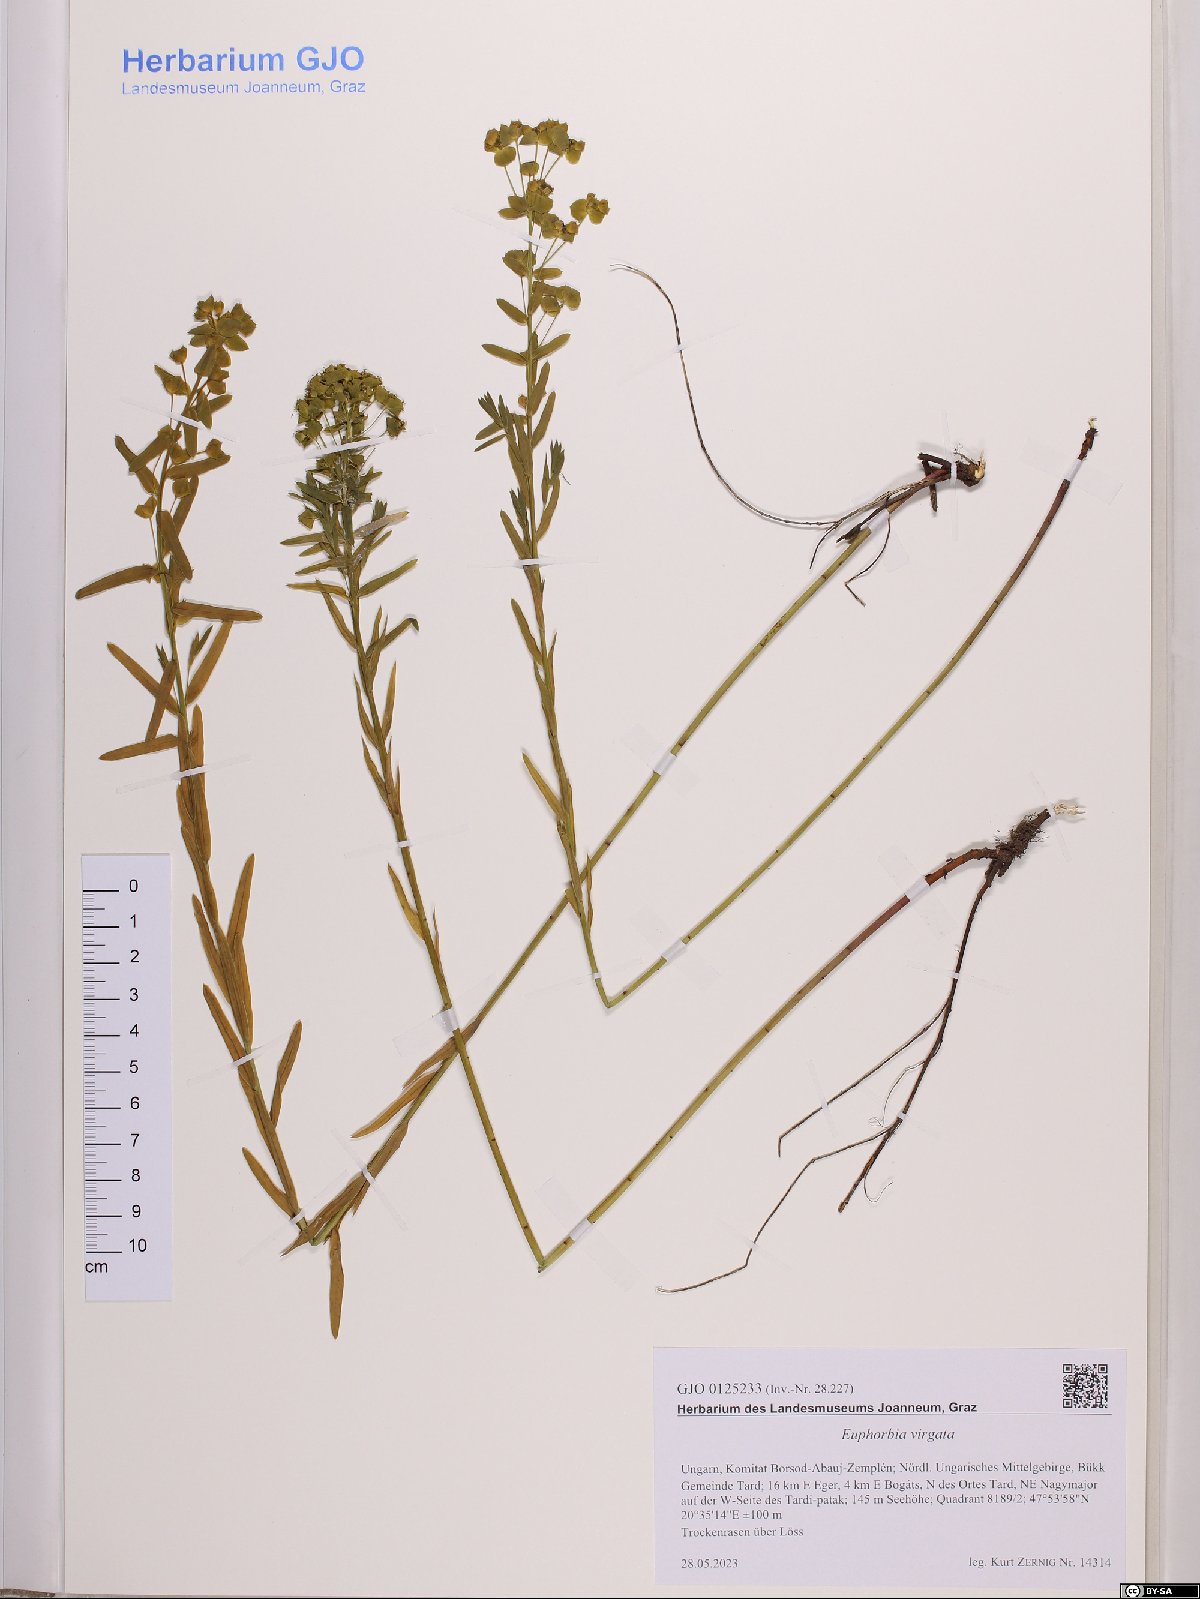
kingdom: Plantae
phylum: Tracheophyta
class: Magnoliopsida
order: Malpighiales
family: Euphorbiaceae
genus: Euphorbia
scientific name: Euphorbia virgata
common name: Leafy spurge
